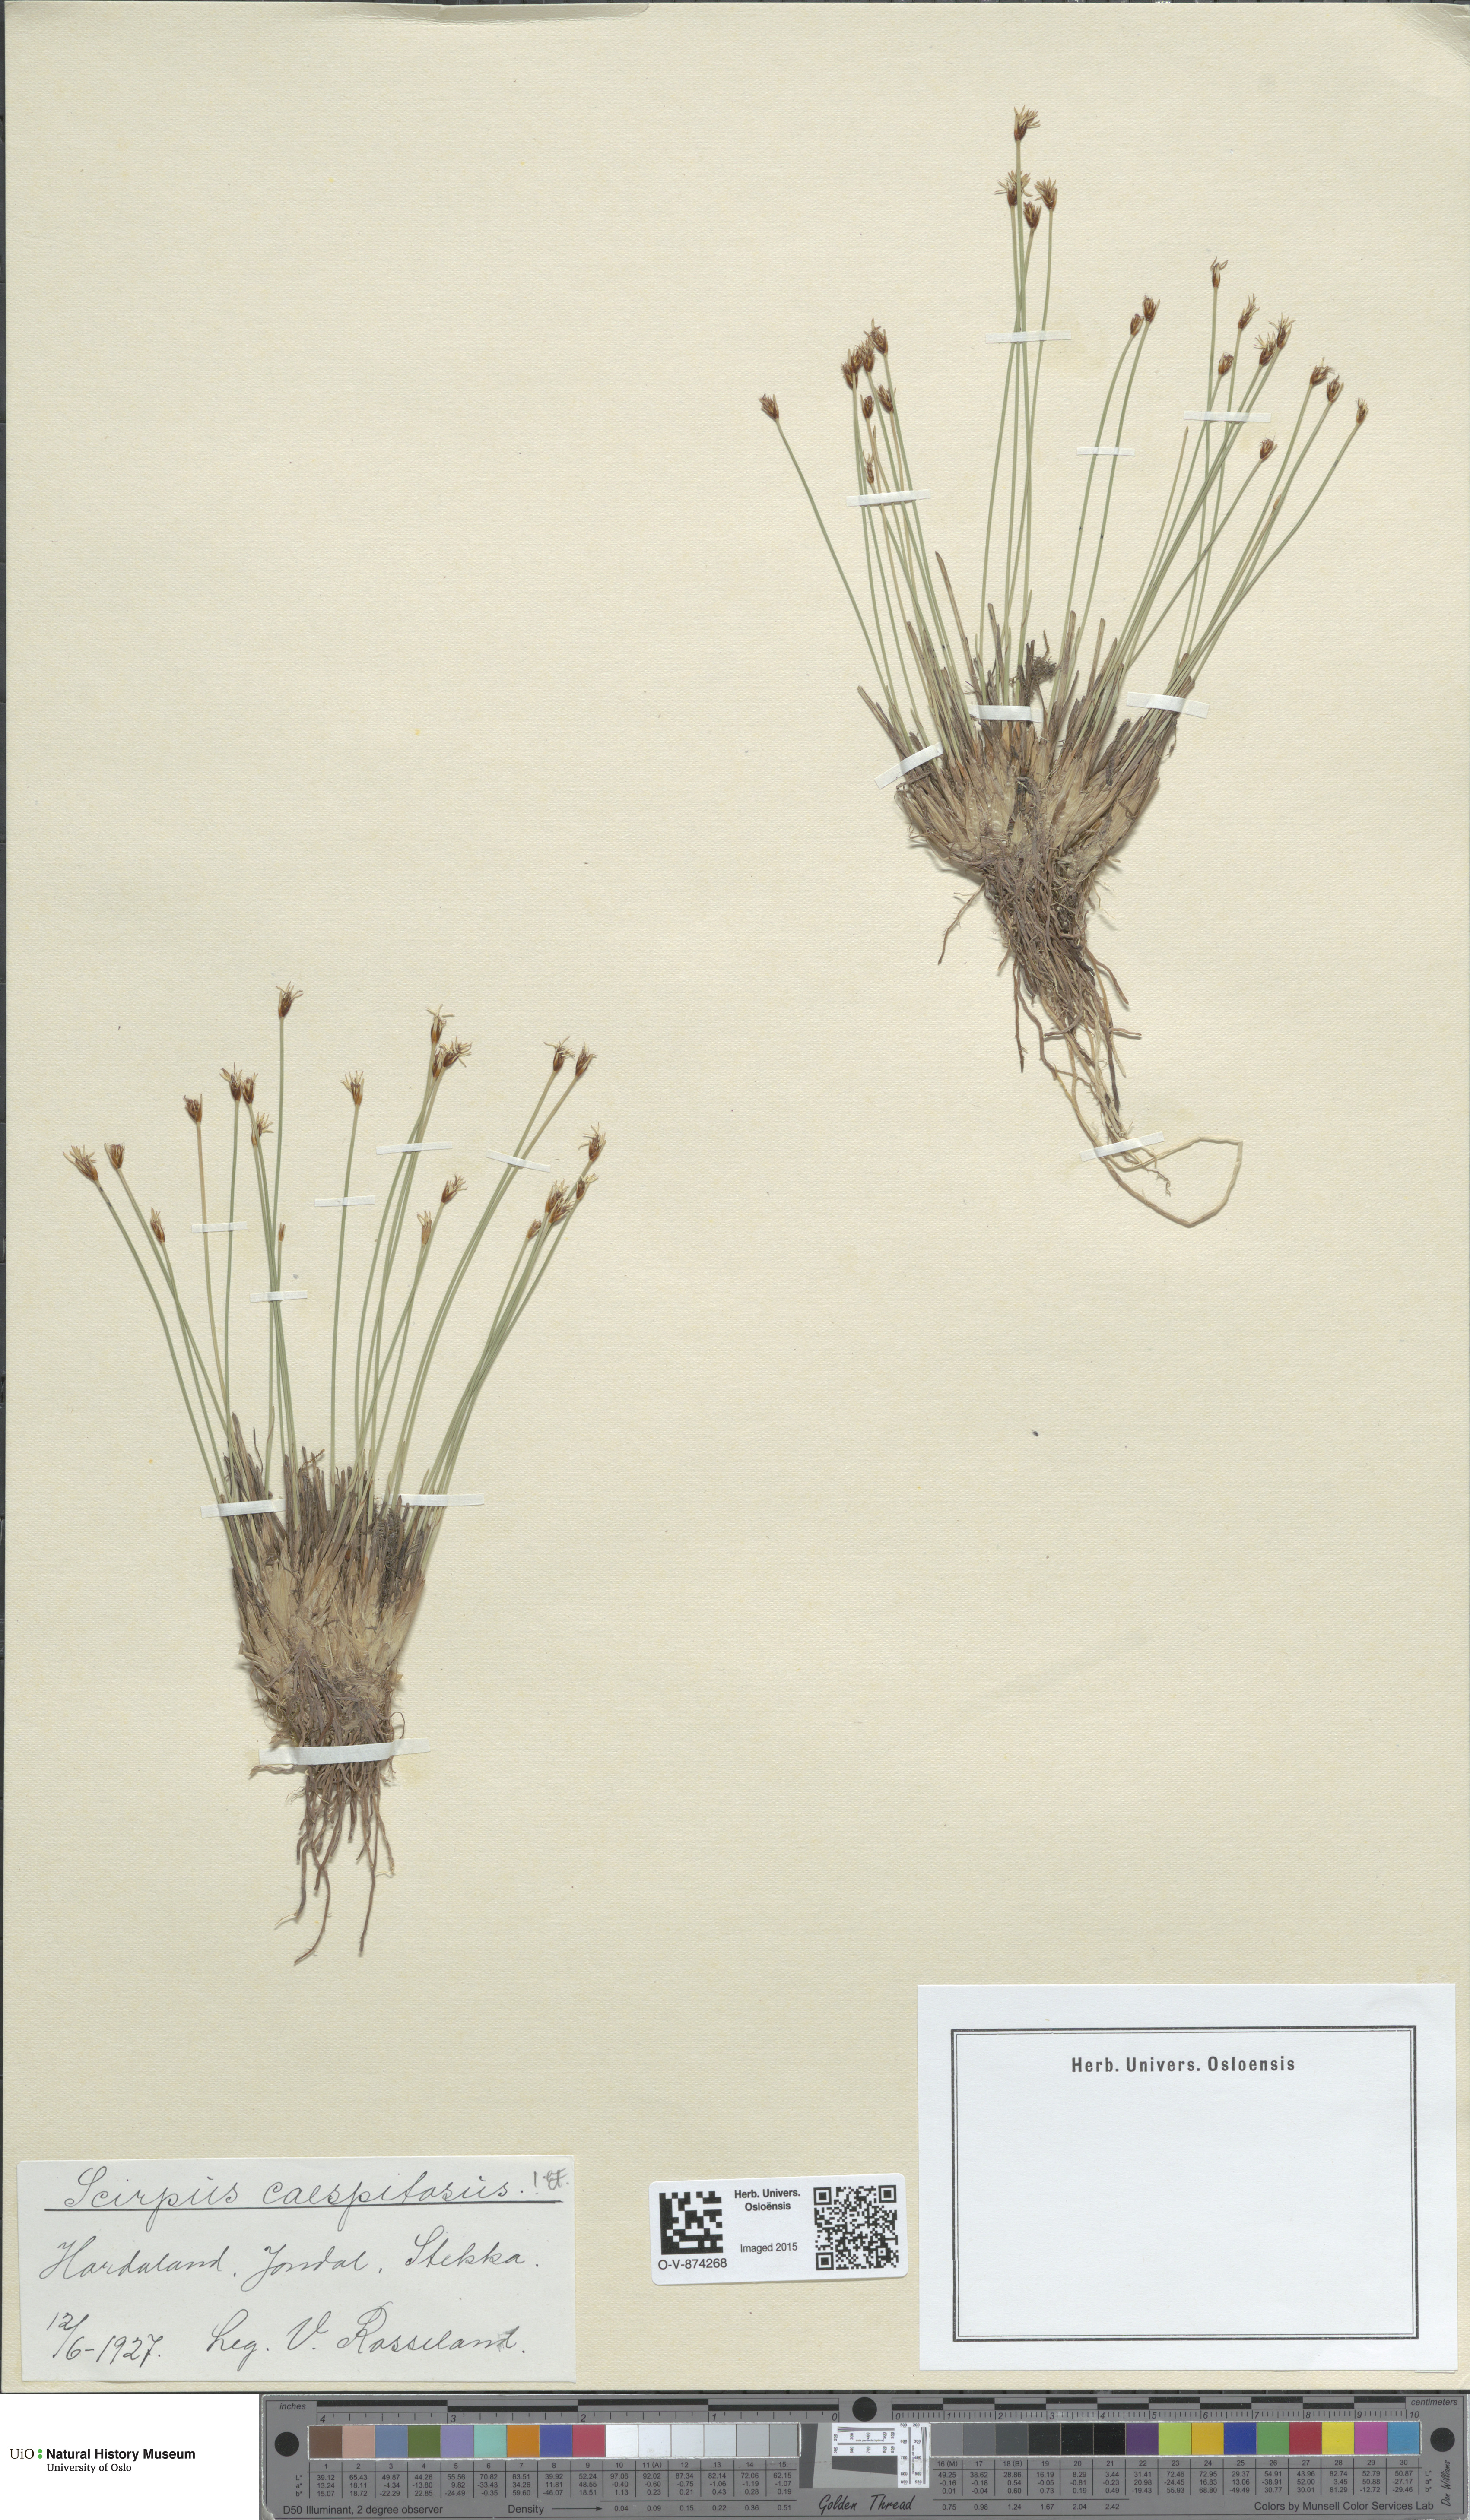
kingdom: Plantae
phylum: Tracheophyta
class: Liliopsida
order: Poales
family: Cyperaceae
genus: Trichophorum
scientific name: Trichophorum cespitosum
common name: Cespitose bulrush
